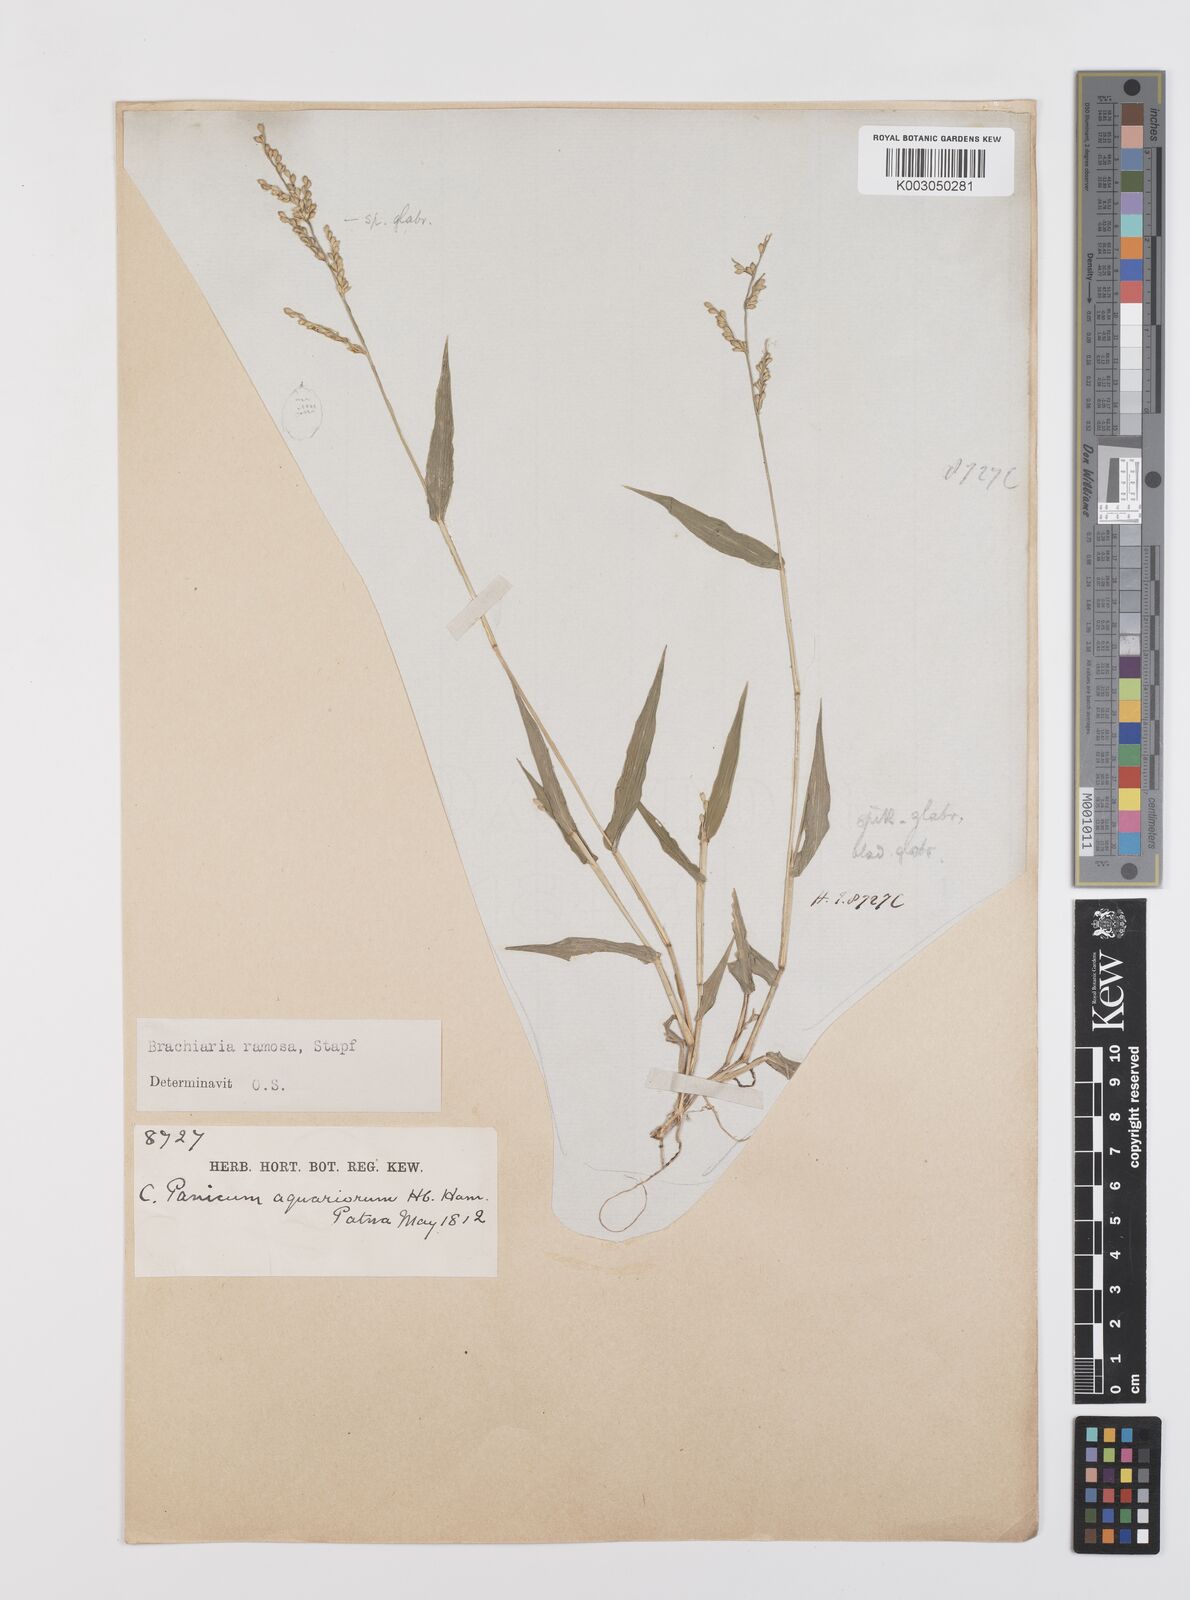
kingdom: Plantae
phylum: Tracheophyta
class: Liliopsida
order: Poales
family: Poaceae
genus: Urochloa
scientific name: Urochloa ramosa
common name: Browntop millet
